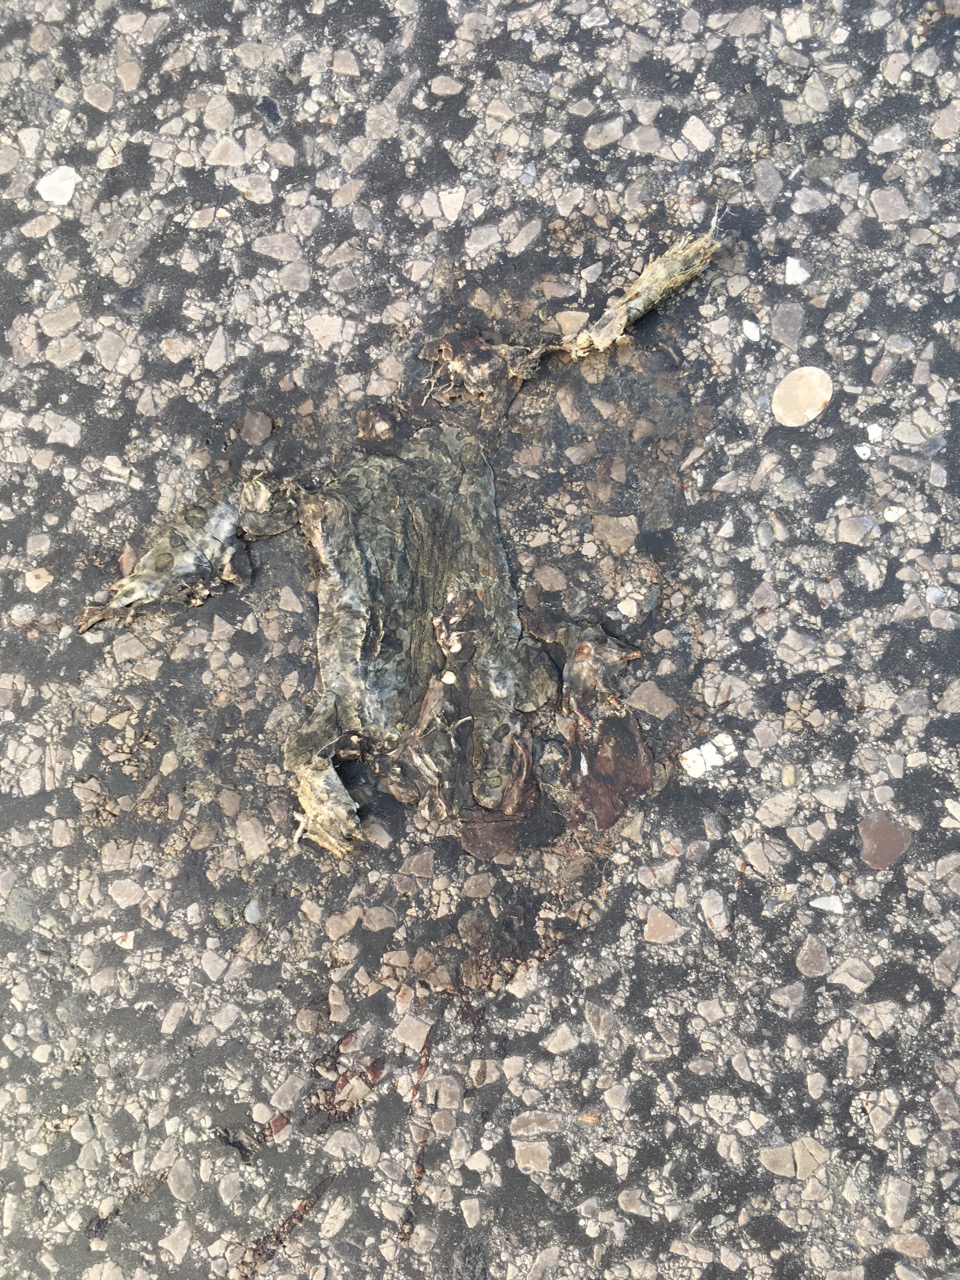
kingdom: Animalia
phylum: Chordata
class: Amphibia
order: Anura
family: Bufonidae
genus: Bufotes
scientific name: Bufotes viridis
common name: European green toad
